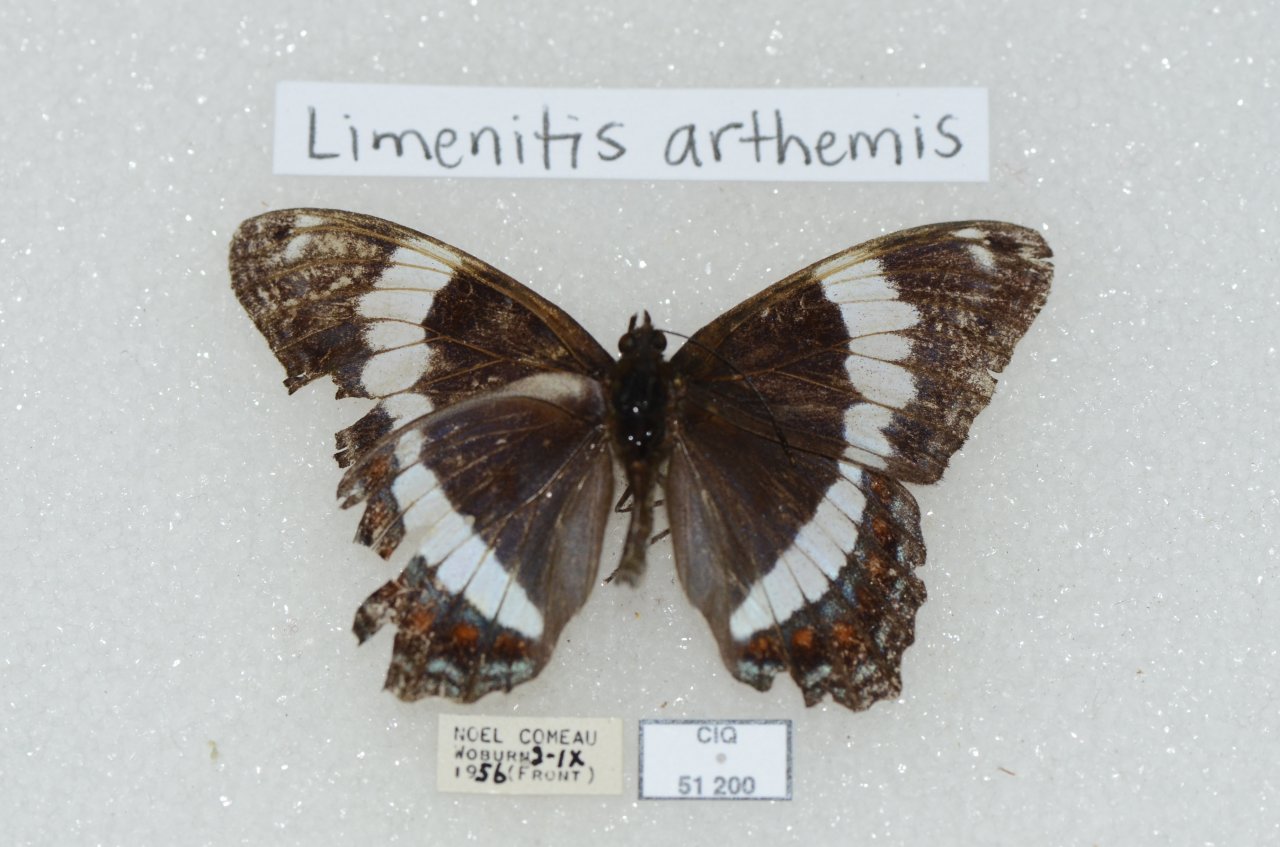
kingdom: Animalia
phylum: Arthropoda
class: Insecta
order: Lepidoptera
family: Nymphalidae
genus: Limenitis
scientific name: Limenitis arthemis
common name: Red-spotted Admiral
